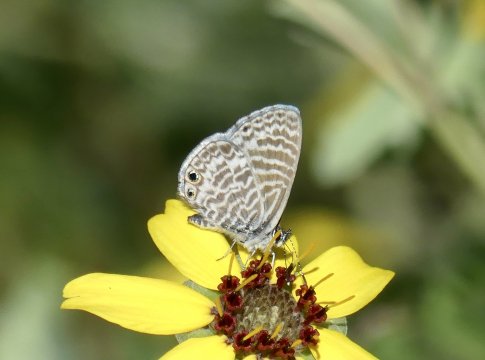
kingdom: Animalia
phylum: Arthropoda
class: Insecta
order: Lepidoptera
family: Lycaenidae
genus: Leptotes
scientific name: Leptotes marina
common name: Marine Blue
